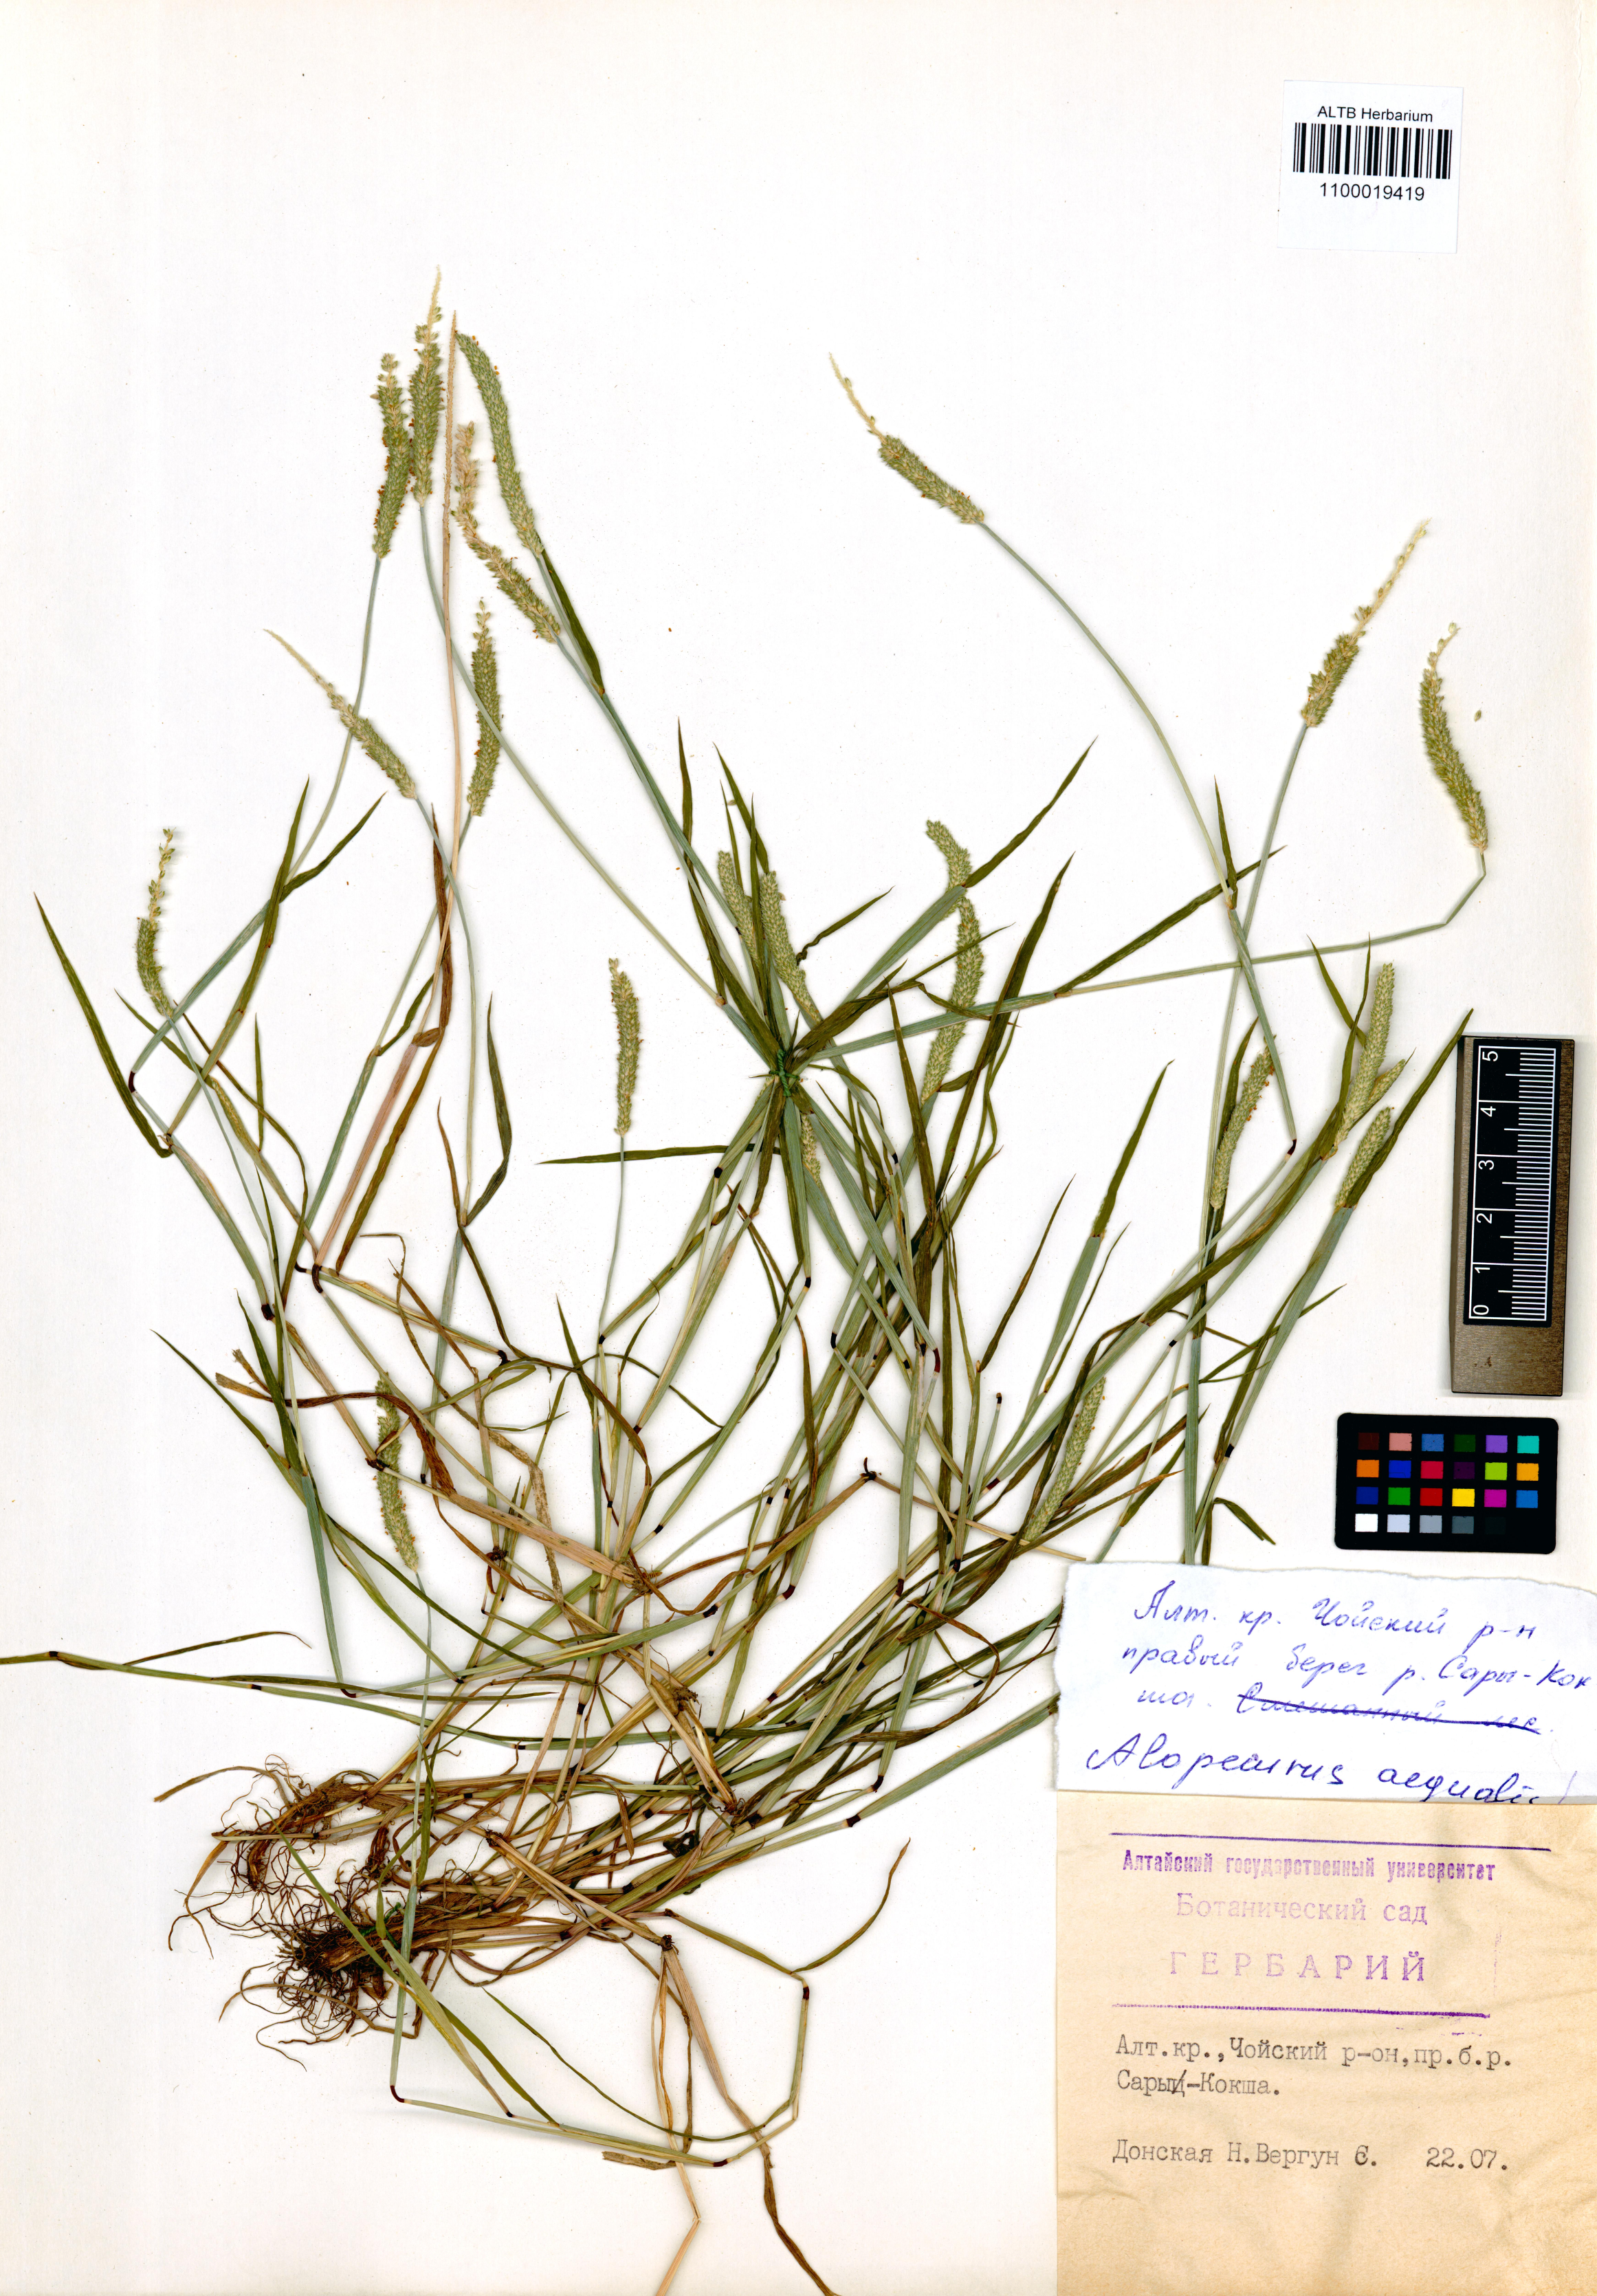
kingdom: Plantae
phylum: Tracheophyta
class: Liliopsida
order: Poales
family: Poaceae
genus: Alopecurus
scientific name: Alopecurus aequalis
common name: Orange foxtail
